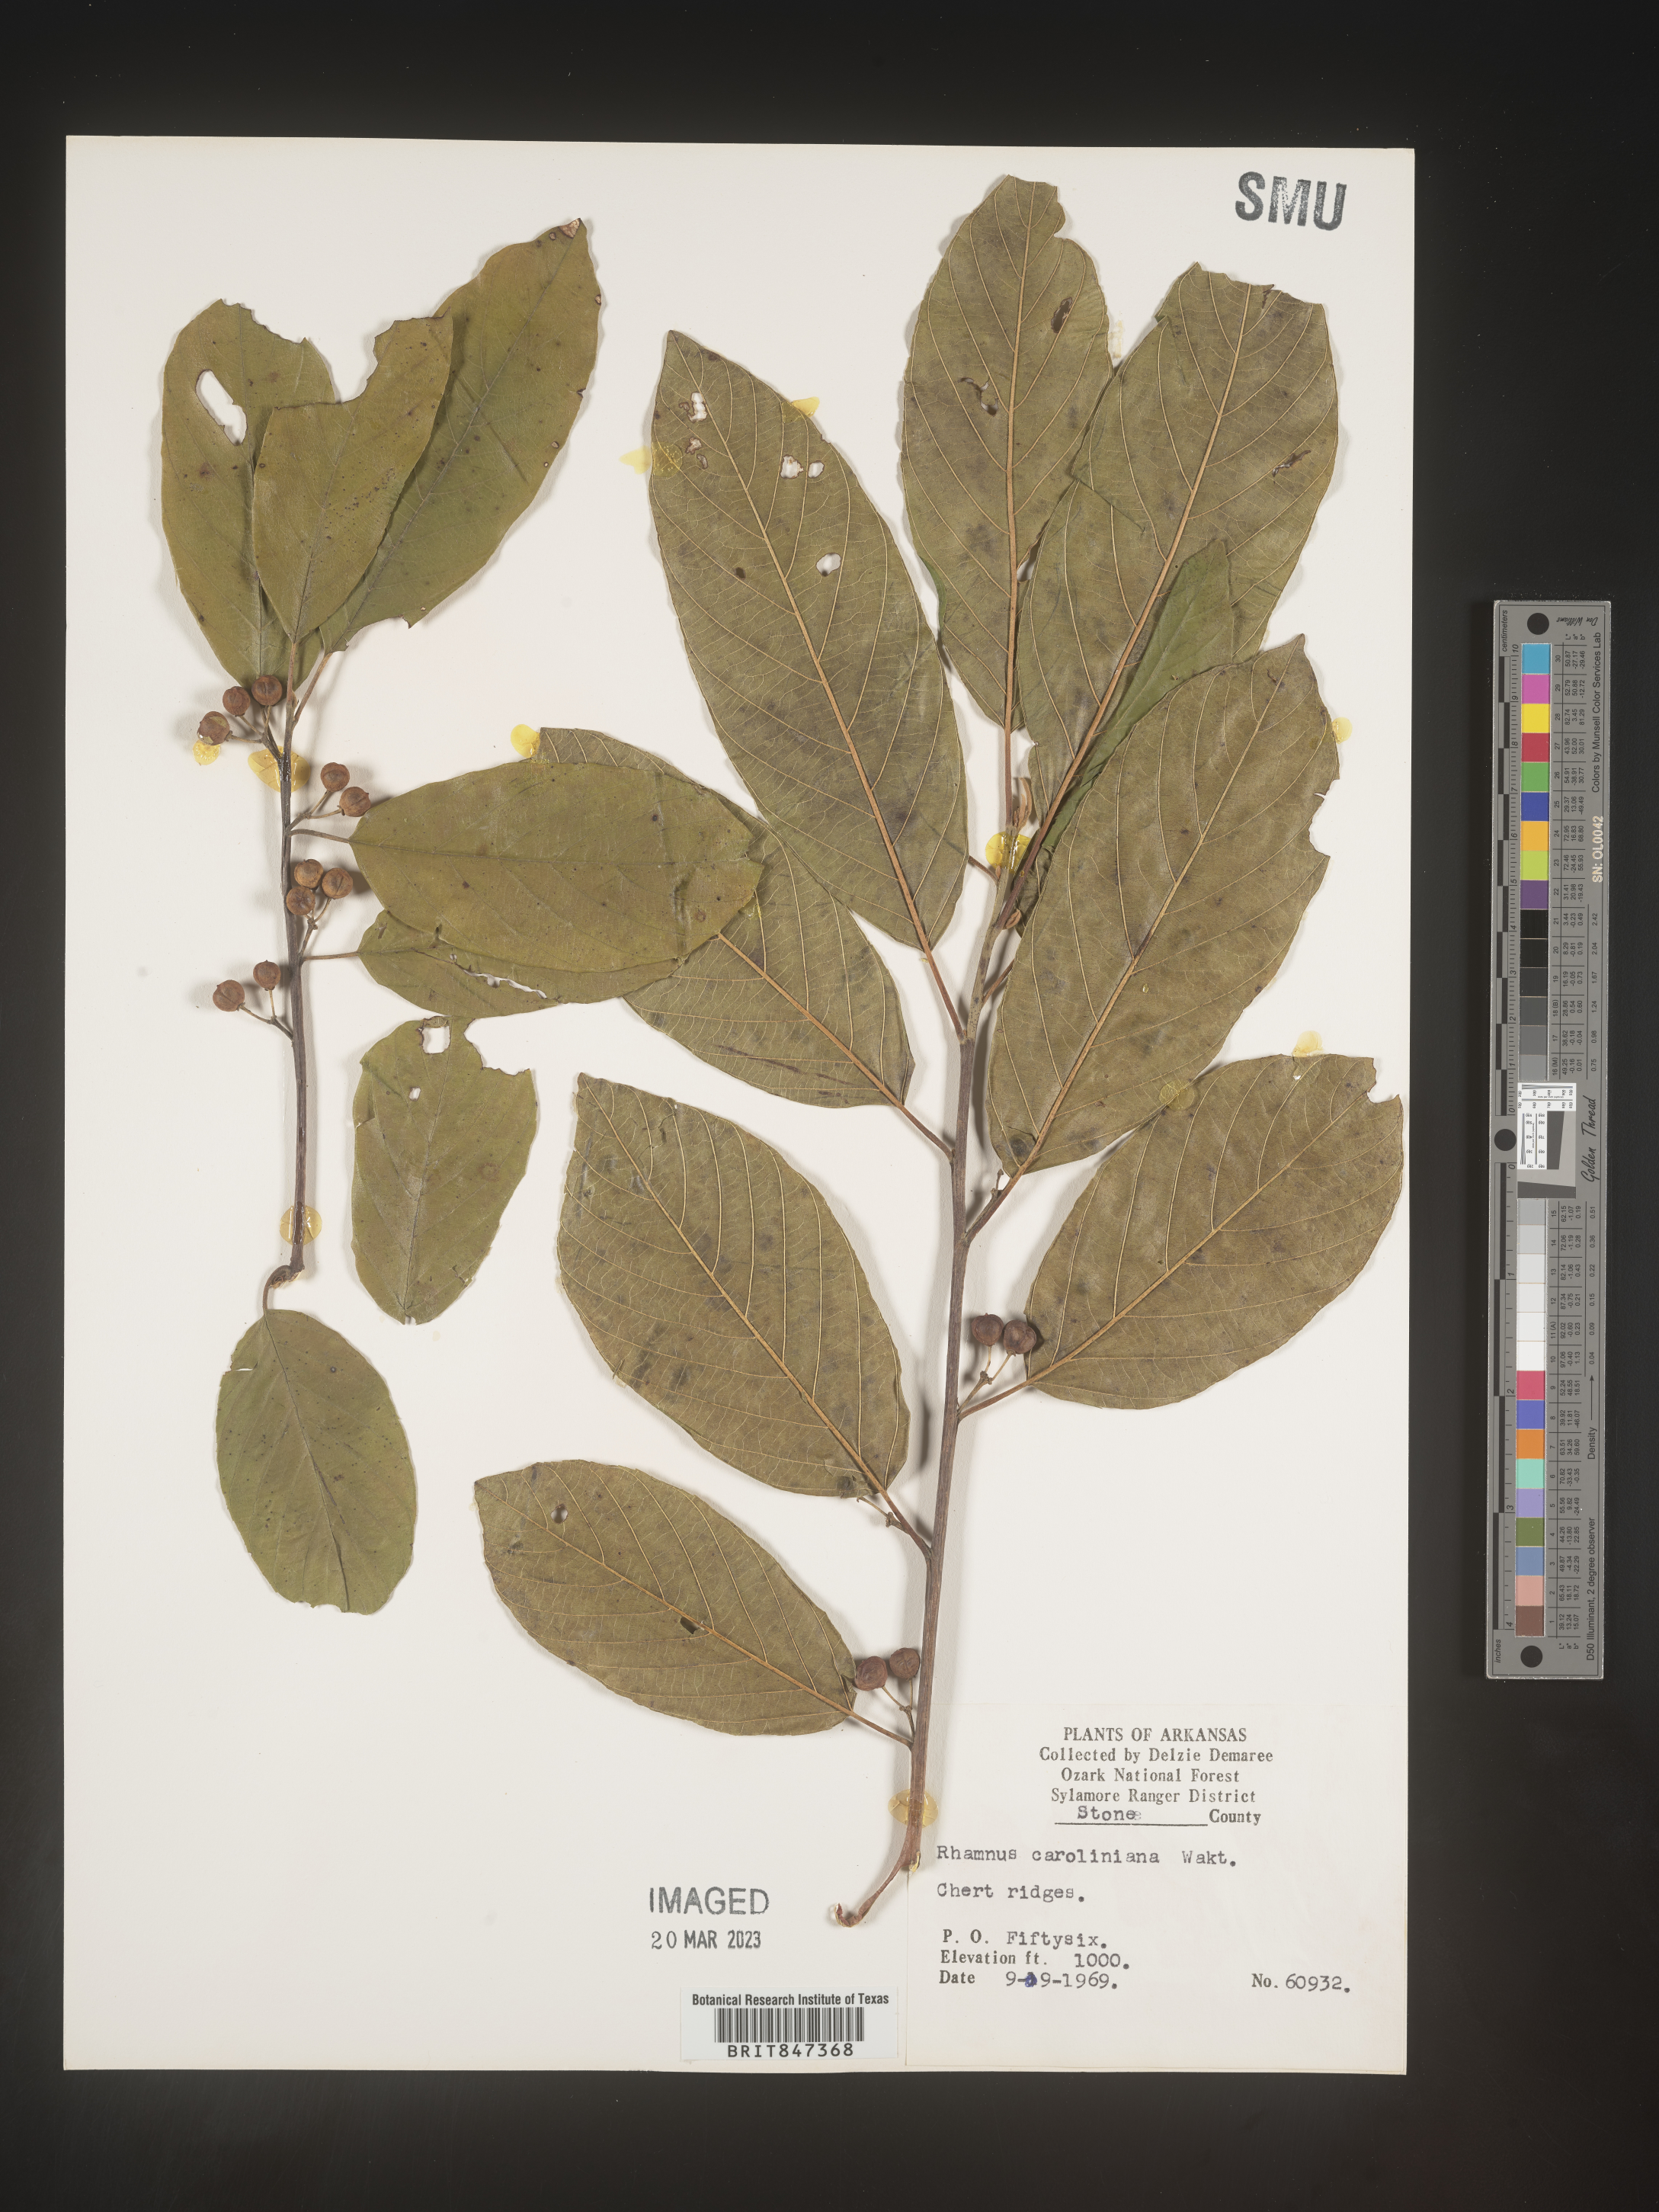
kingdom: Plantae
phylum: Tracheophyta
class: Magnoliopsida
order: Rosales
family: Rhamnaceae
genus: Frangula
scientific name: Frangula caroliniana
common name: Carolina buckthorn
